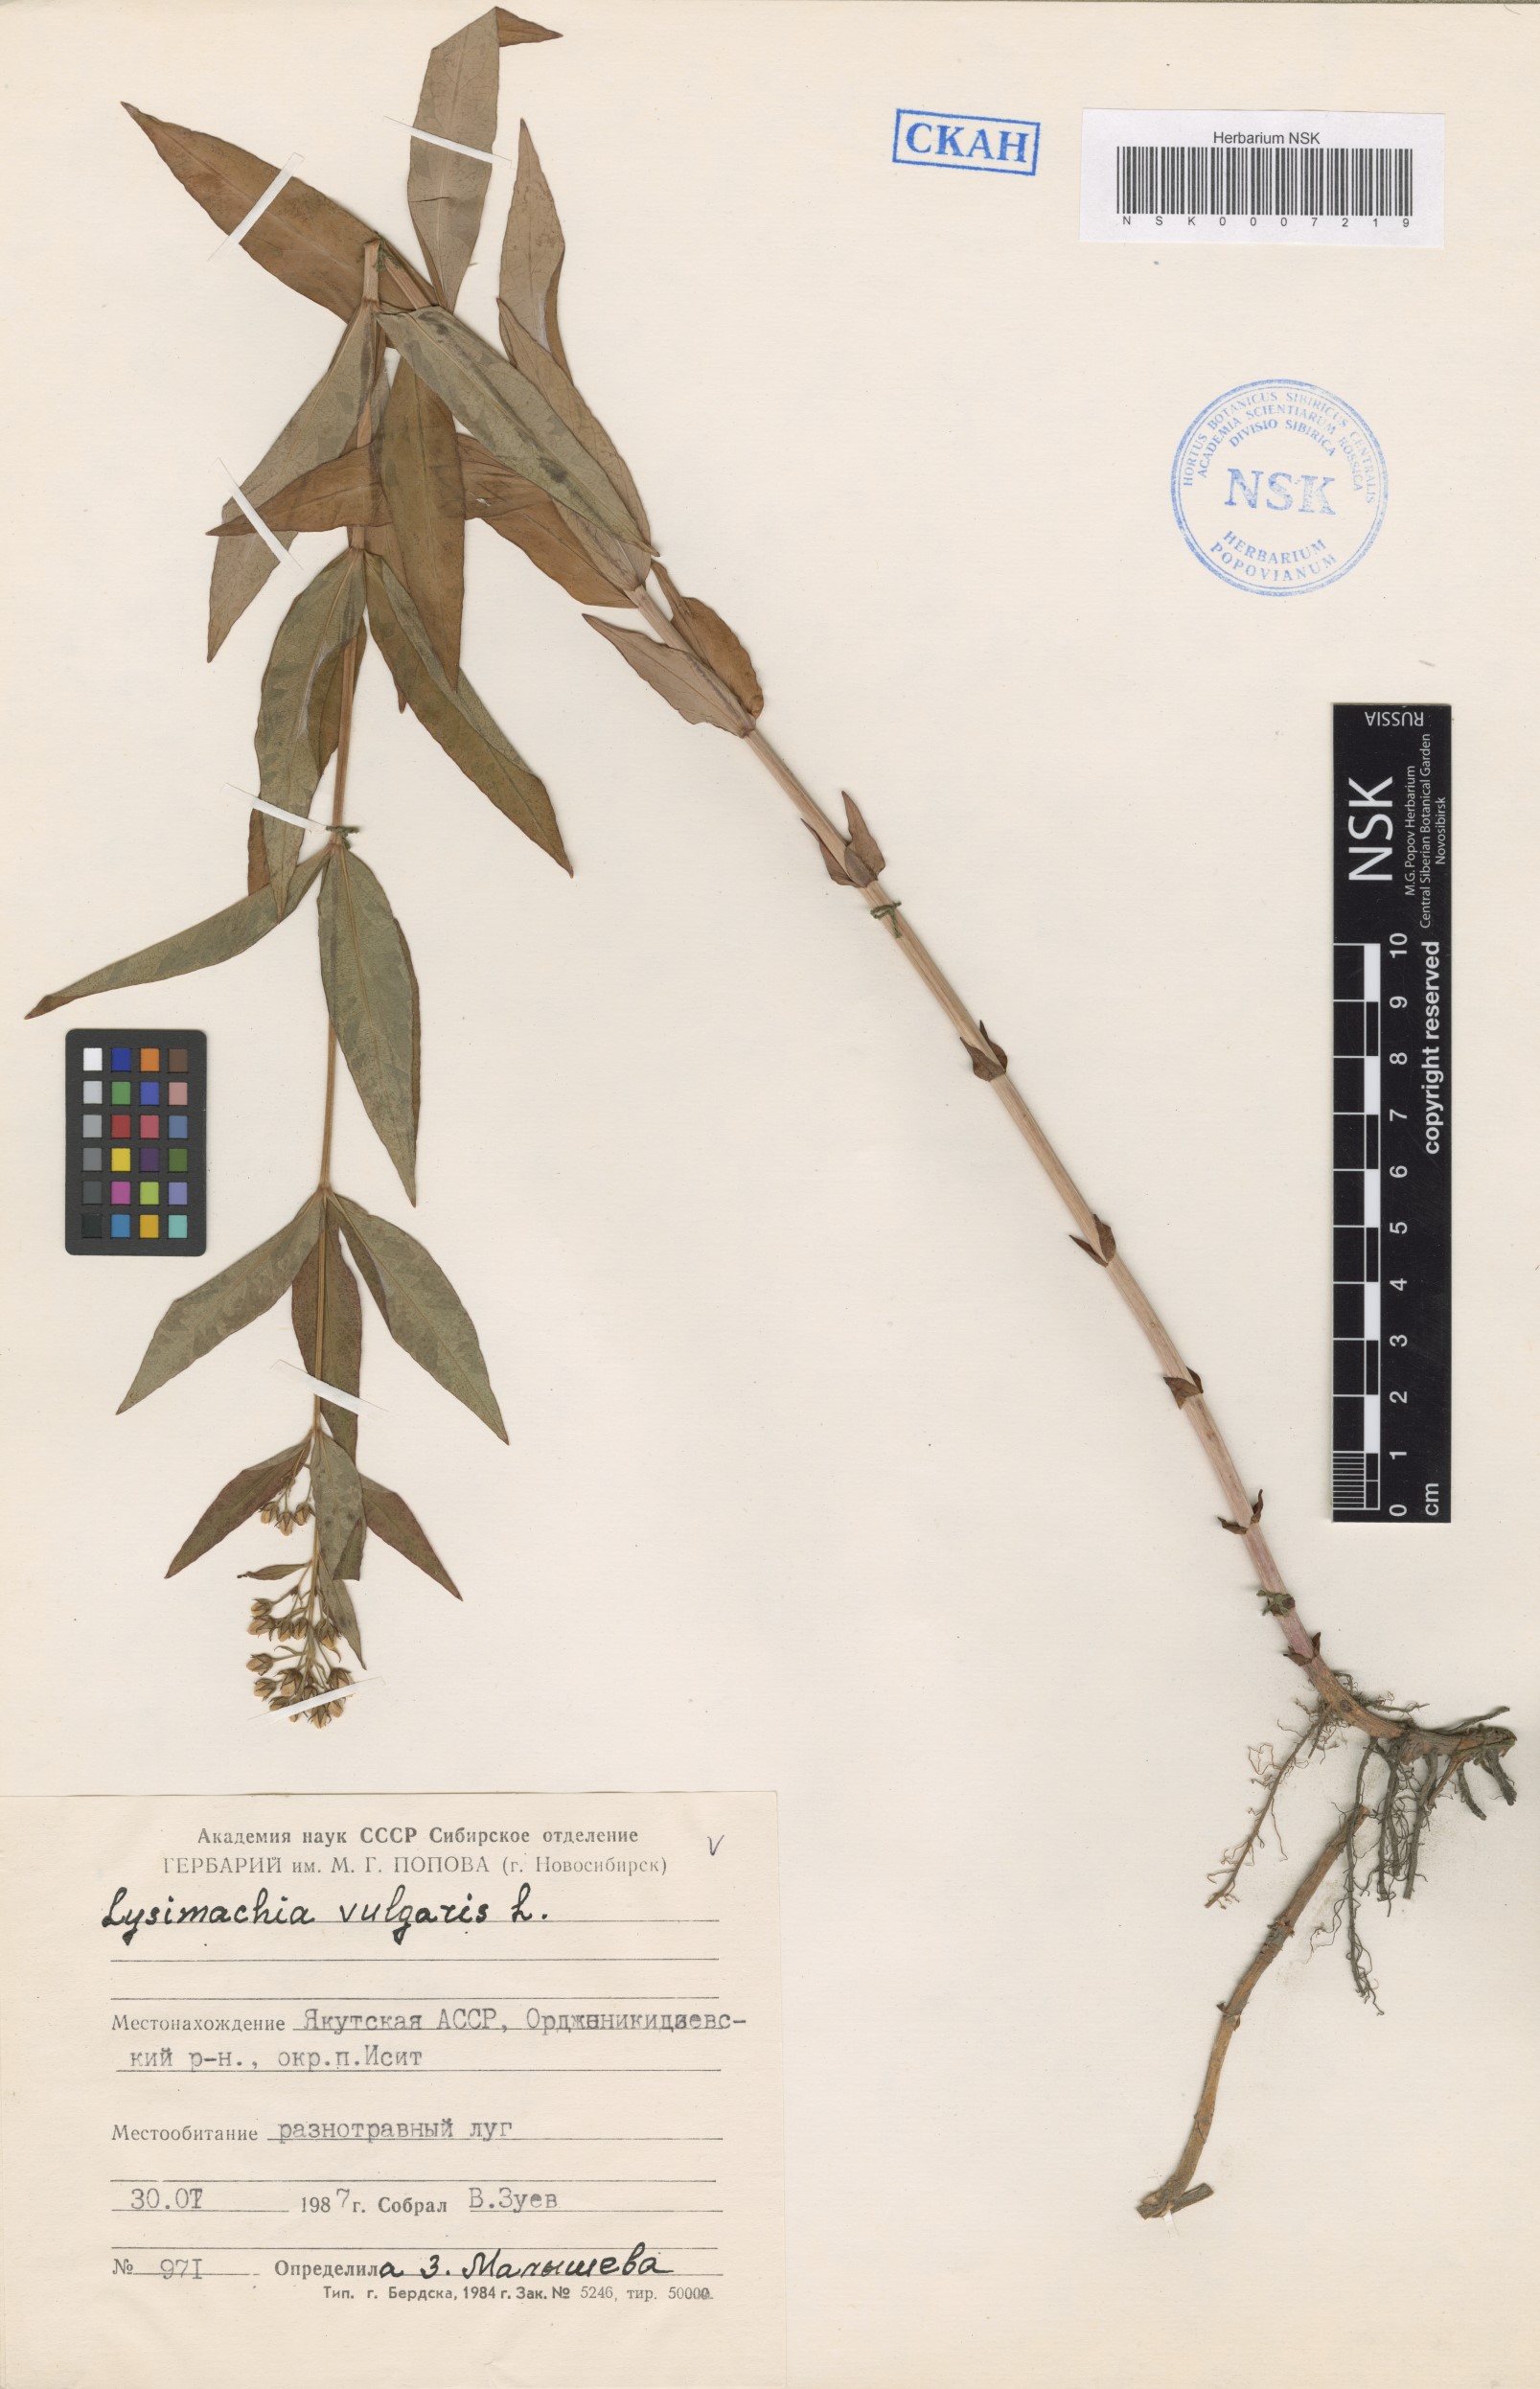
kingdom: Plantae
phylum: Tracheophyta
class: Magnoliopsida
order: Ericales
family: Primulaceae
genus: Lysimachia
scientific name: Lysimachia vulgaris
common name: Yellow loosestrife
